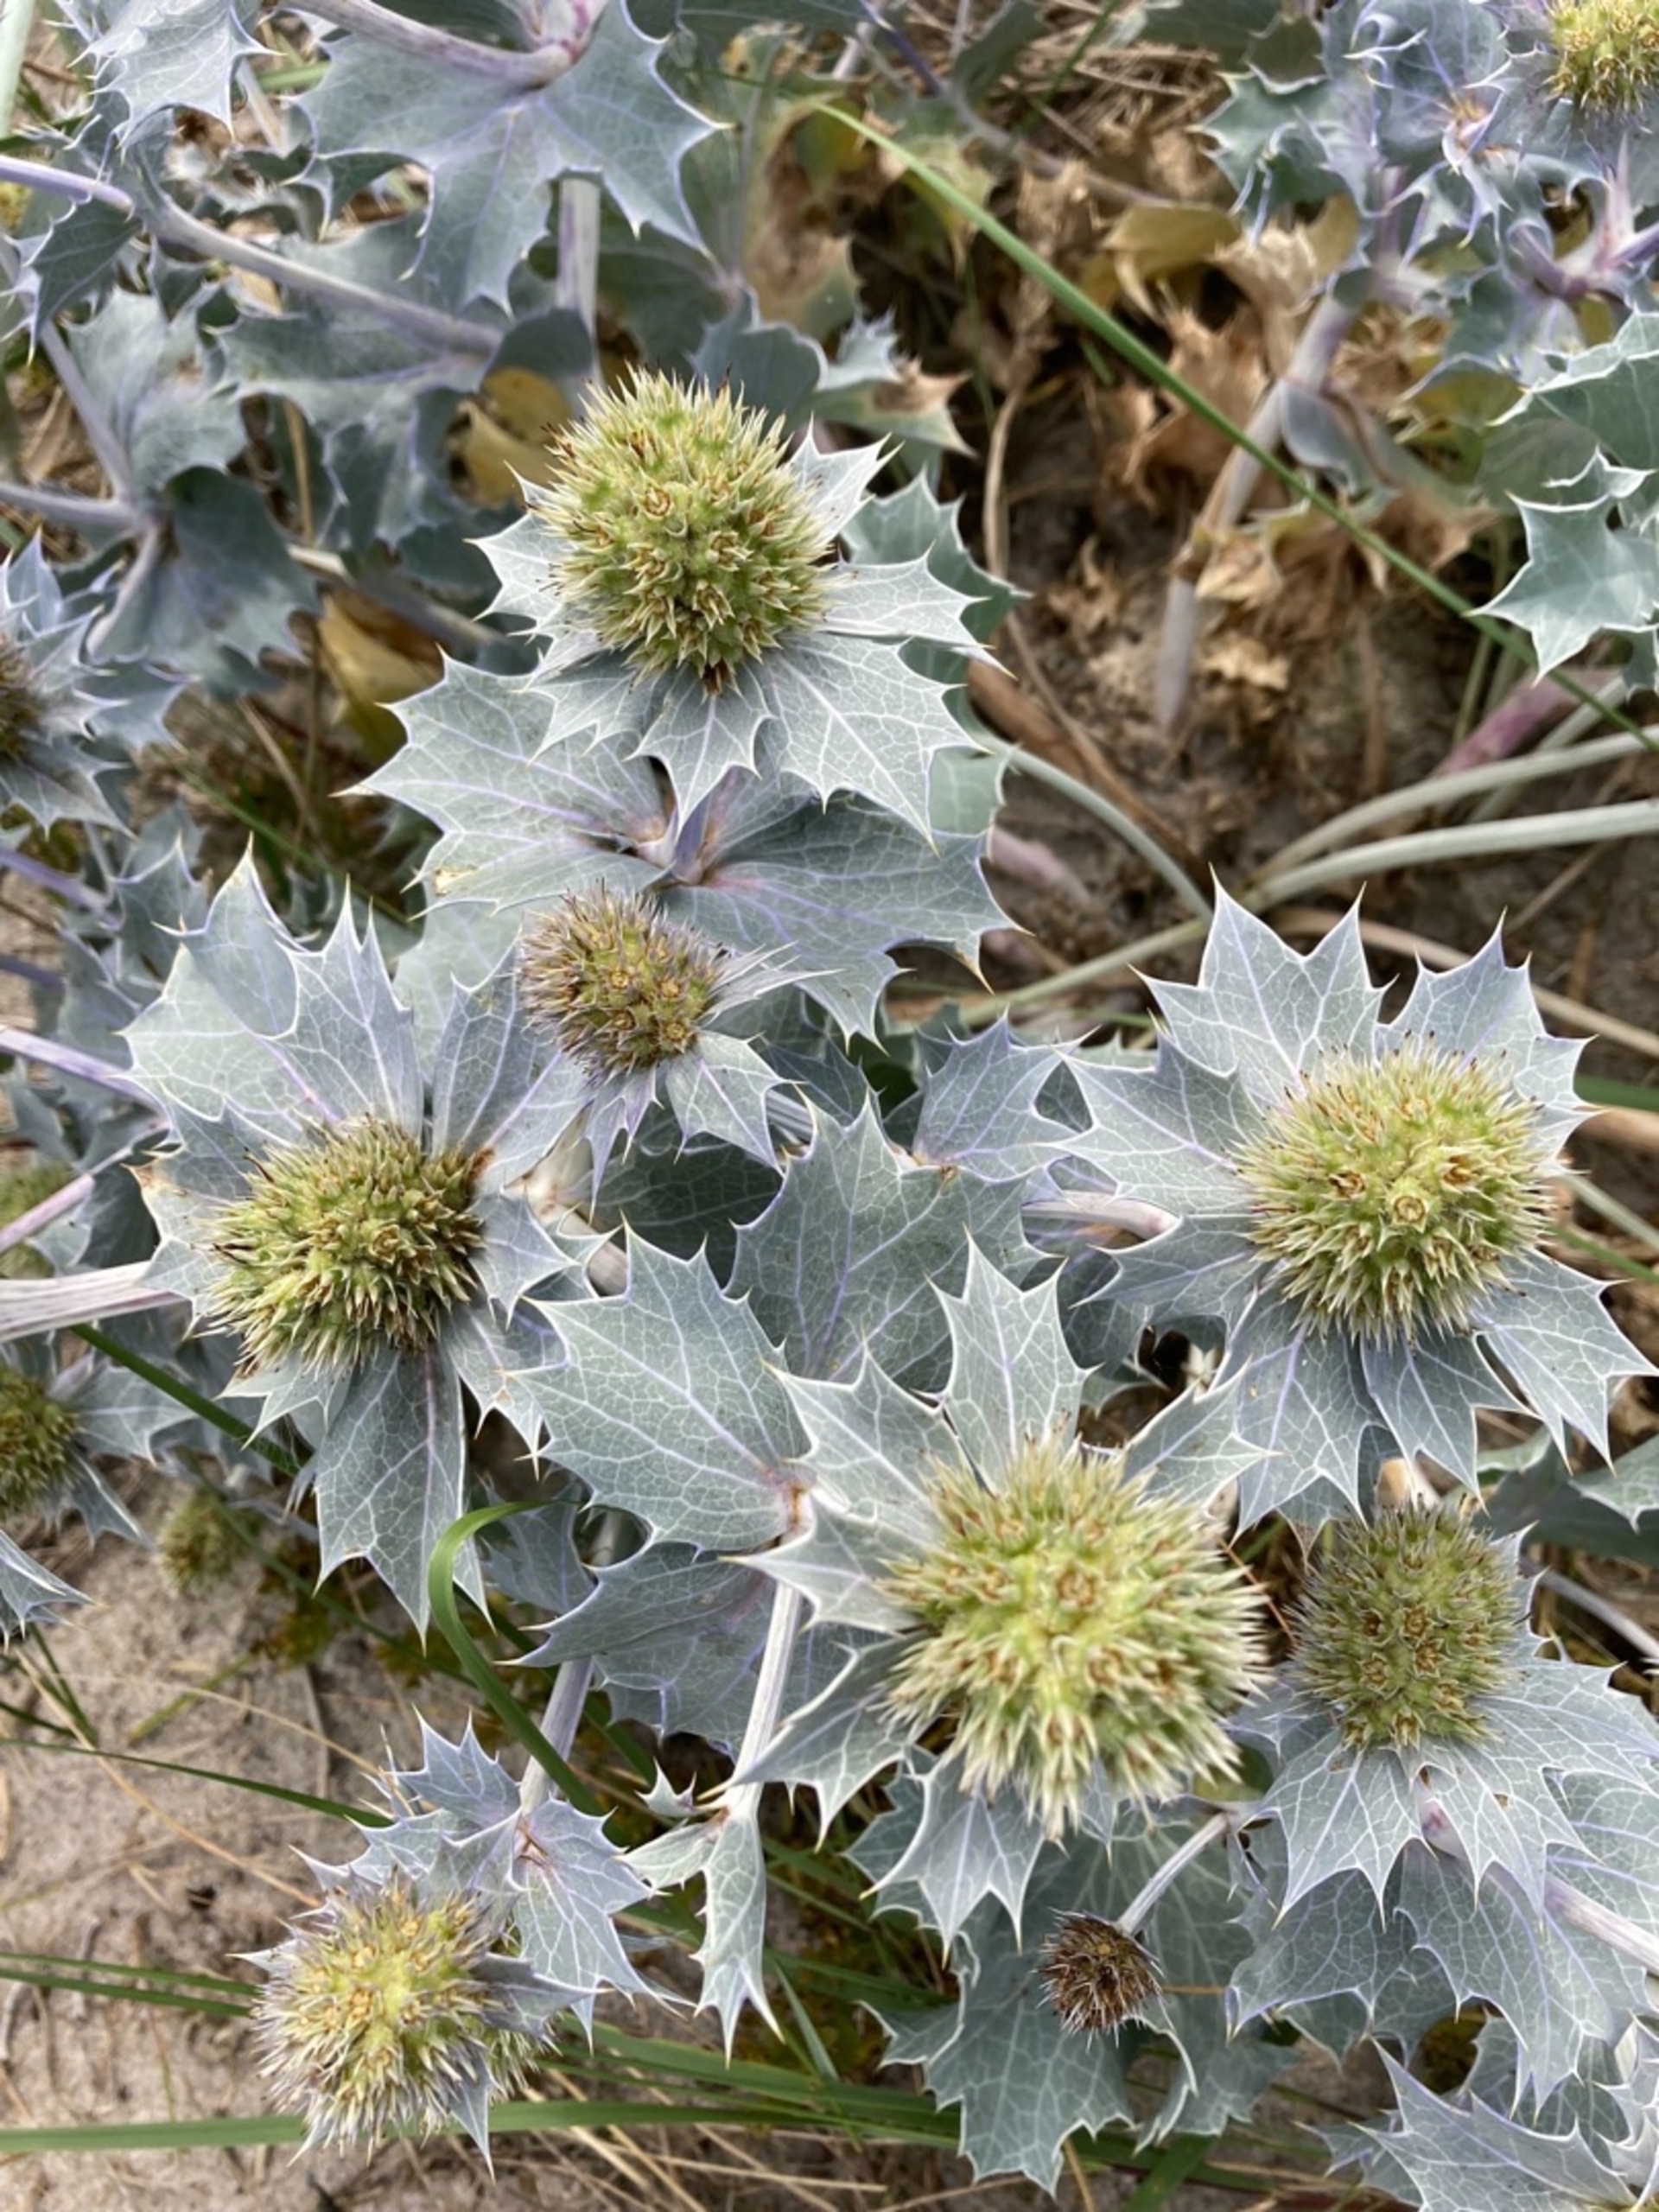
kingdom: Plantae
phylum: Tracheophyta
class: Magnoliopsida
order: Apiales
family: Apiaceae
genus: Eryngium
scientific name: Eryngium maritimum
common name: Strand-mandstro
